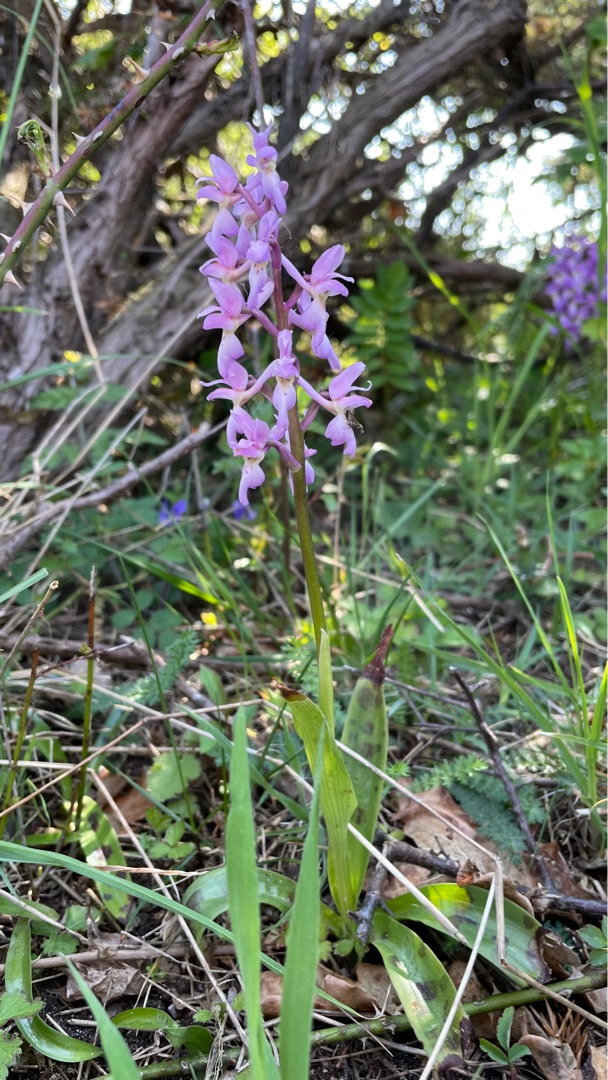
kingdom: Plantae
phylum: Tracheophyta
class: Liliopsida
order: Asparagales
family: Orchidaceae
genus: Orchis
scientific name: Orchis mascula
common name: Tyndakset gøgeurt
